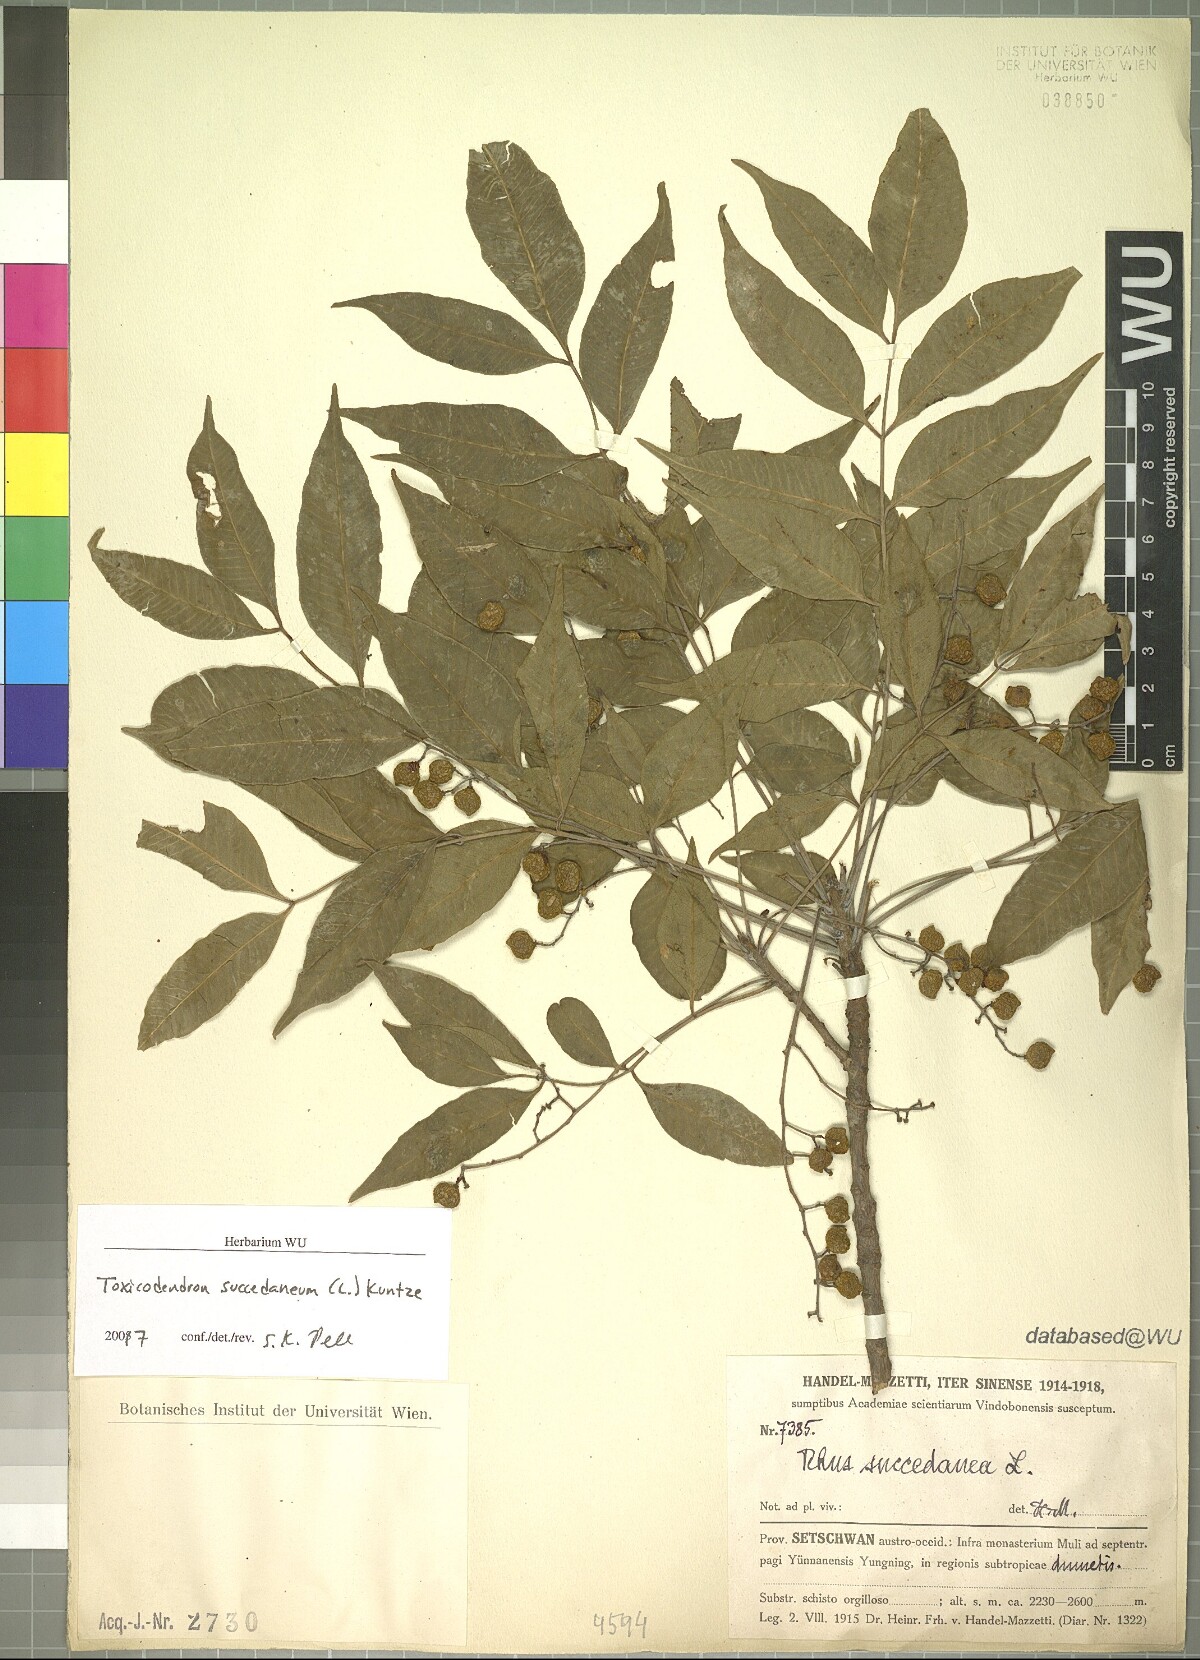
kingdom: Plantae
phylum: Tracheophyta
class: Magnoliopsida
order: Sapindales
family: Anacardiaceae
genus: Toxicodendron
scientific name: Toxicodendron succedaneum
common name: Wax tree
